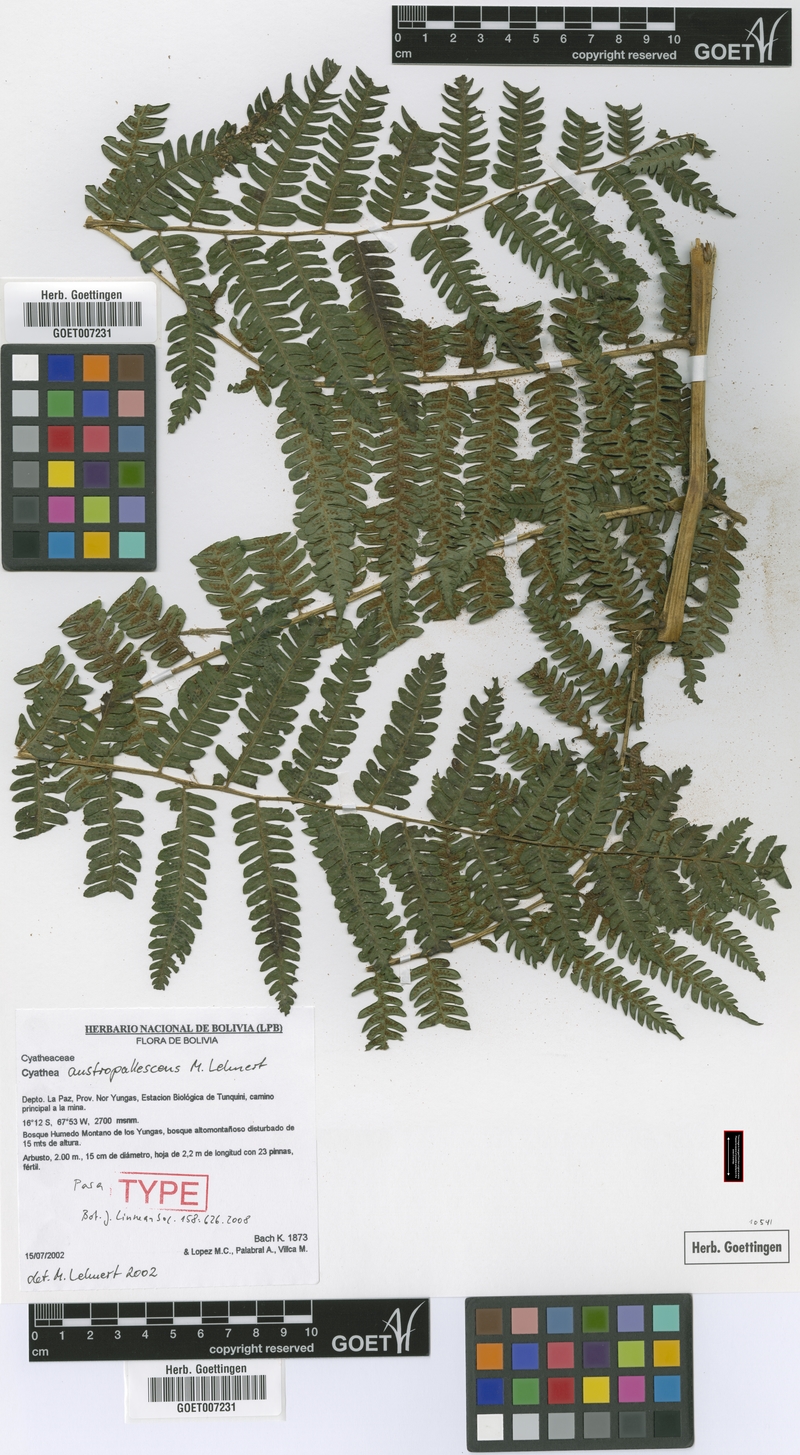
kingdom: Plantae
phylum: Tracheophyta
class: Polypodiopsida
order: Cyatheales
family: Cyatheaceae
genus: Cyathea
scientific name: Cyathea austropallescens
